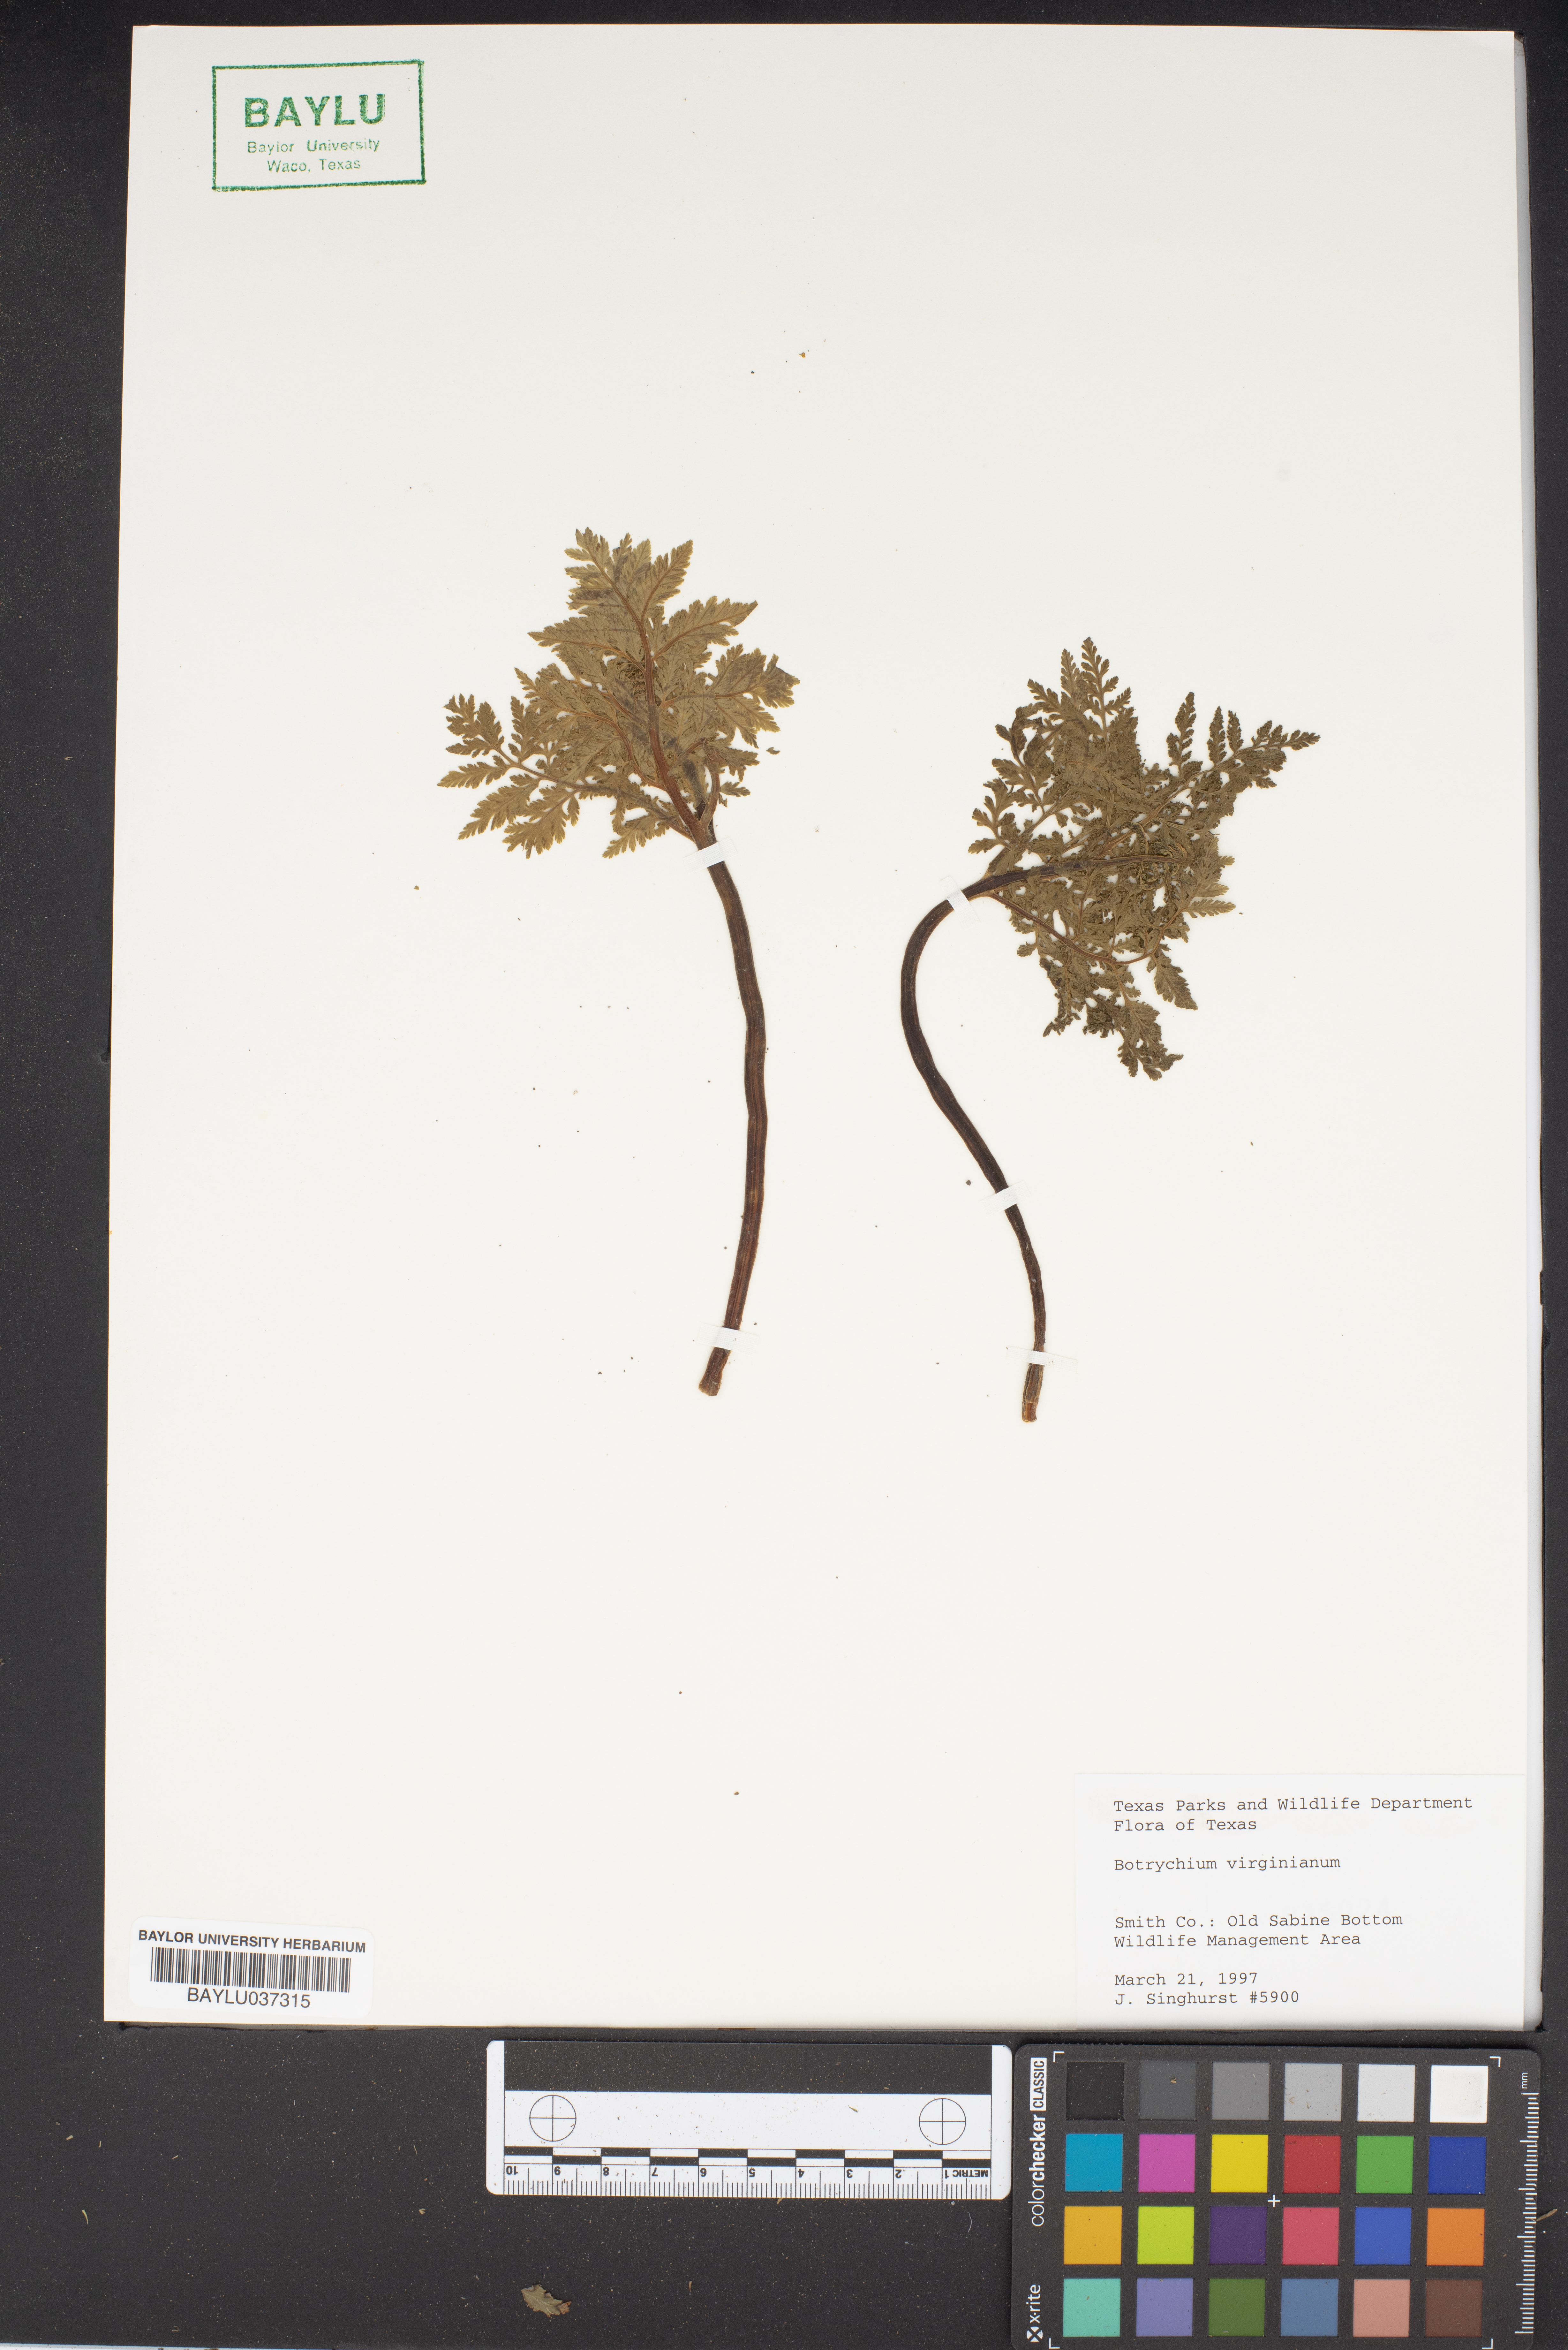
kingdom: Plantae
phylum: Tracheophyta
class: Polypodiopsida
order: Ophioglossales
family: Ophioglossaceae
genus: Botrypus
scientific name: Botrypus virginianus
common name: Common grapefern
